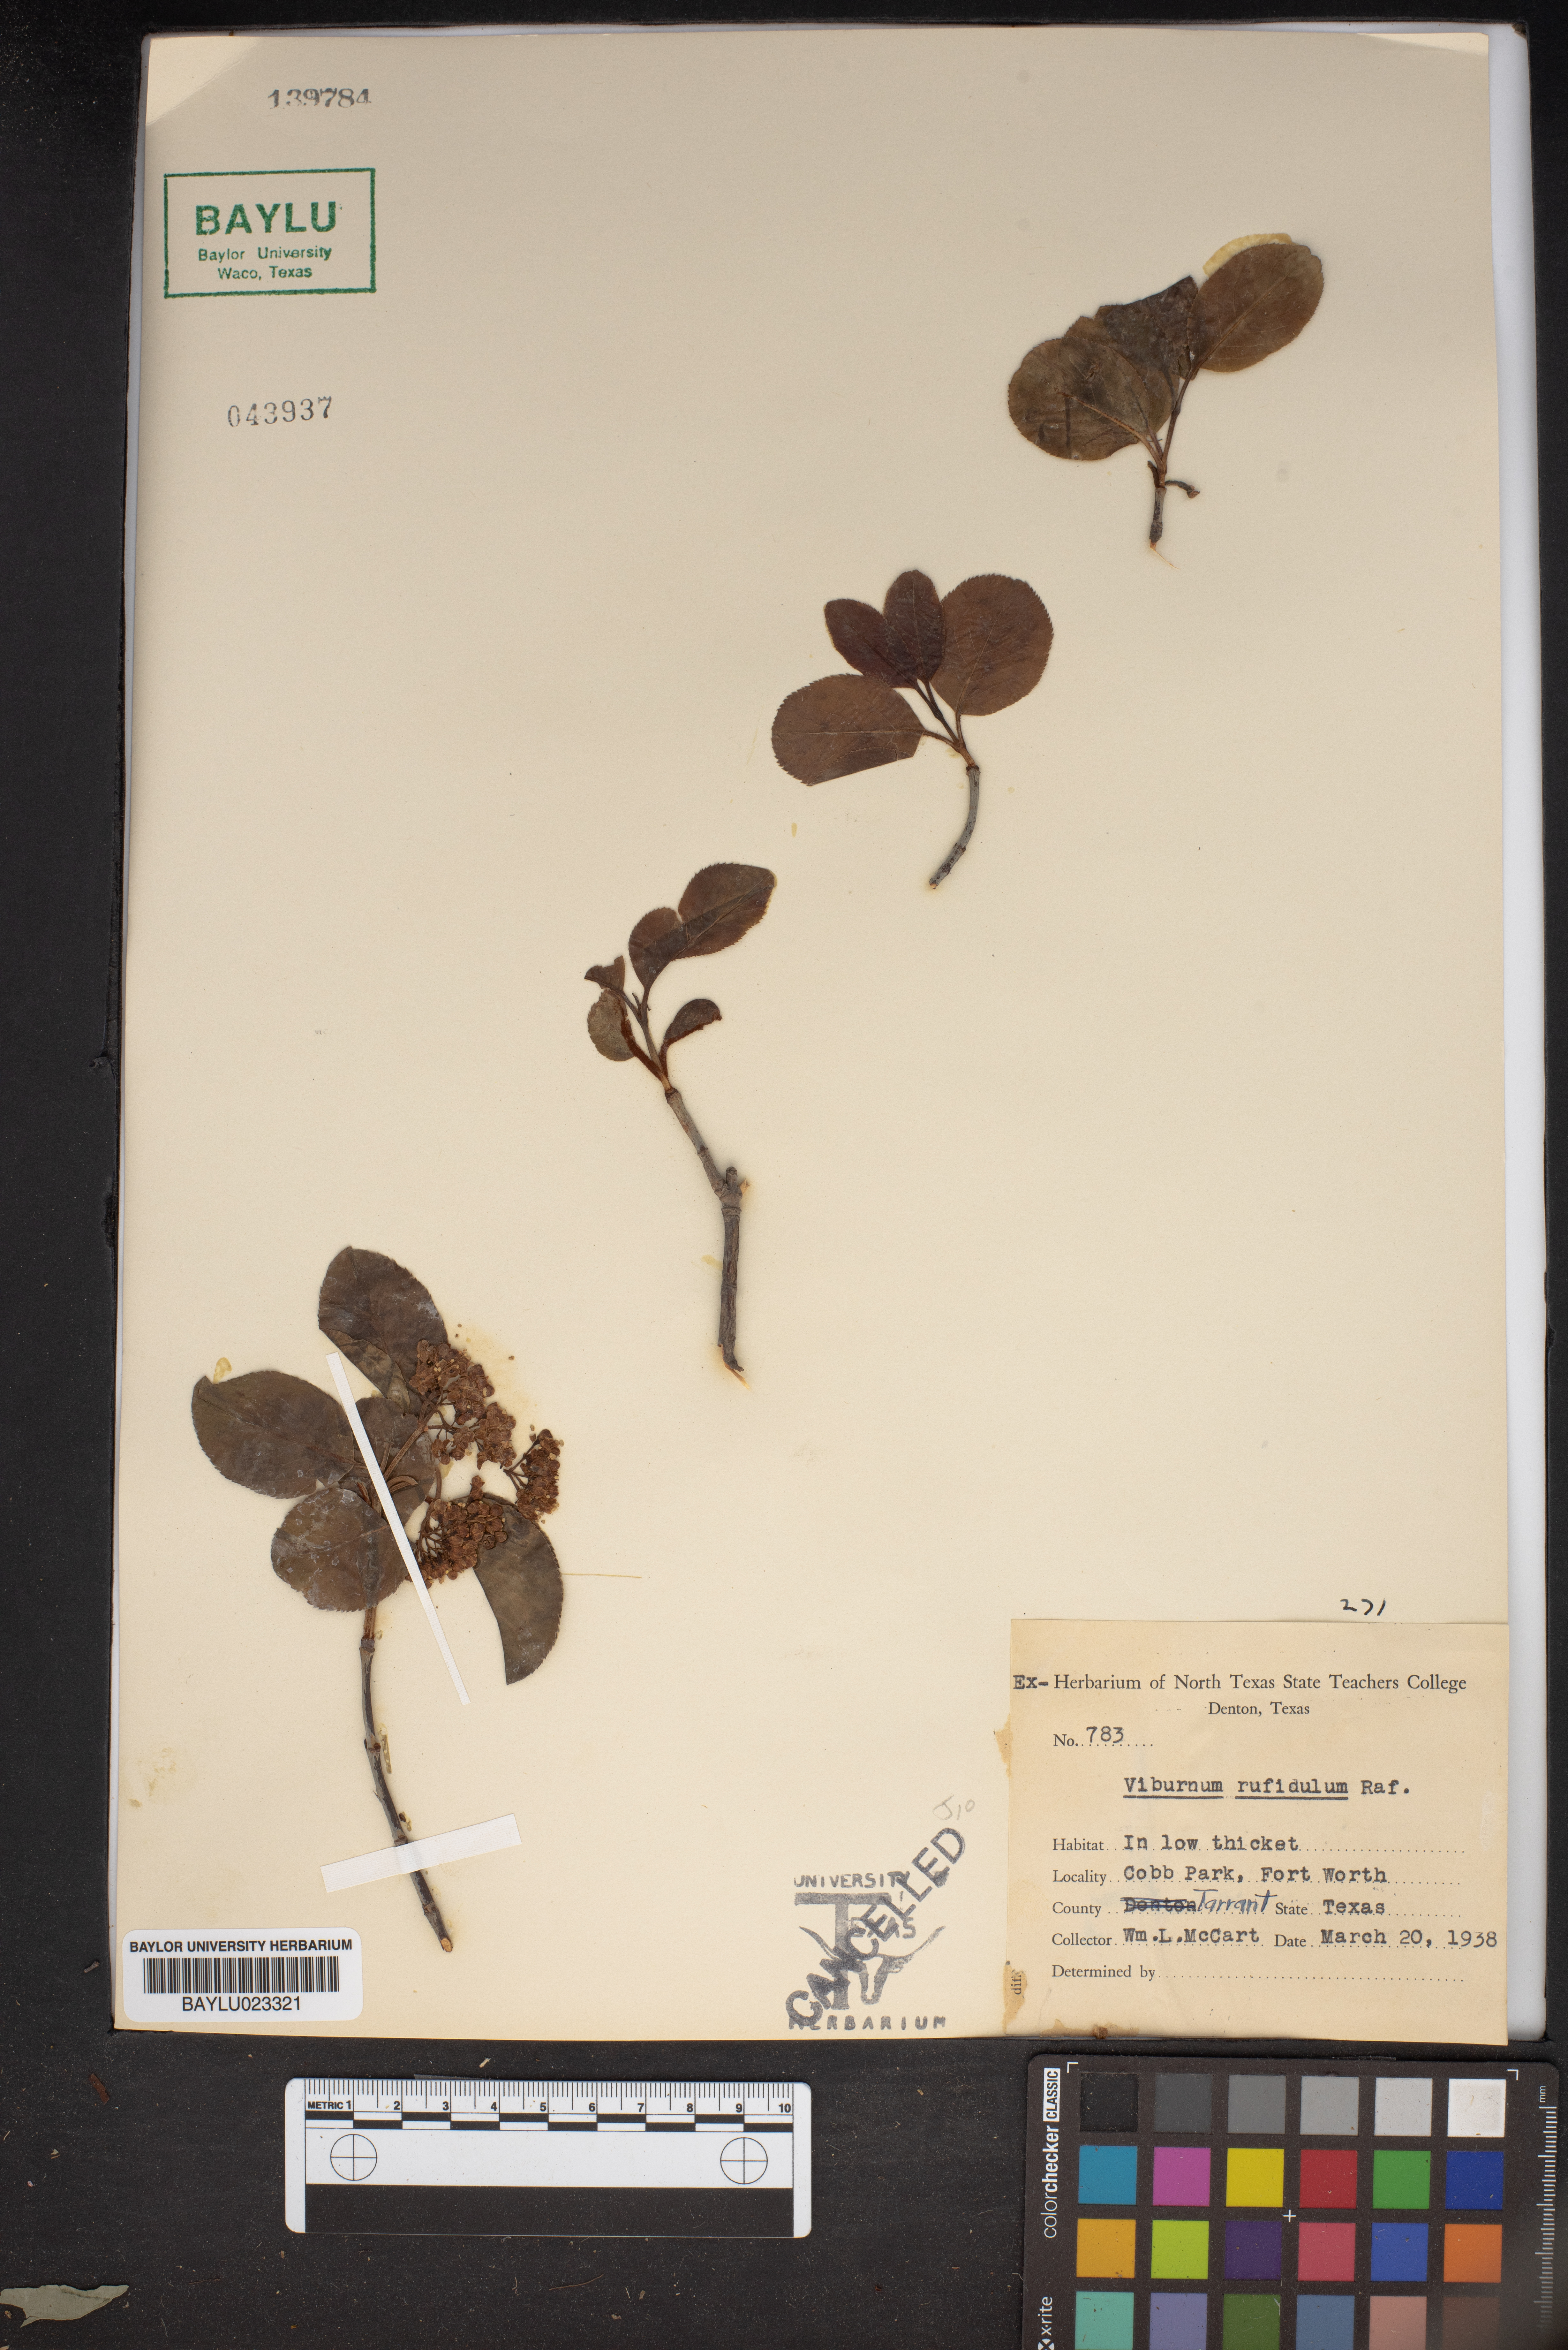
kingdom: Plantae
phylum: Tracheophyta
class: Magnoliopsida
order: Dipsacales
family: Viburnaceae
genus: Viburnum
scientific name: Viburnum rufidulum
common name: Blue haw
